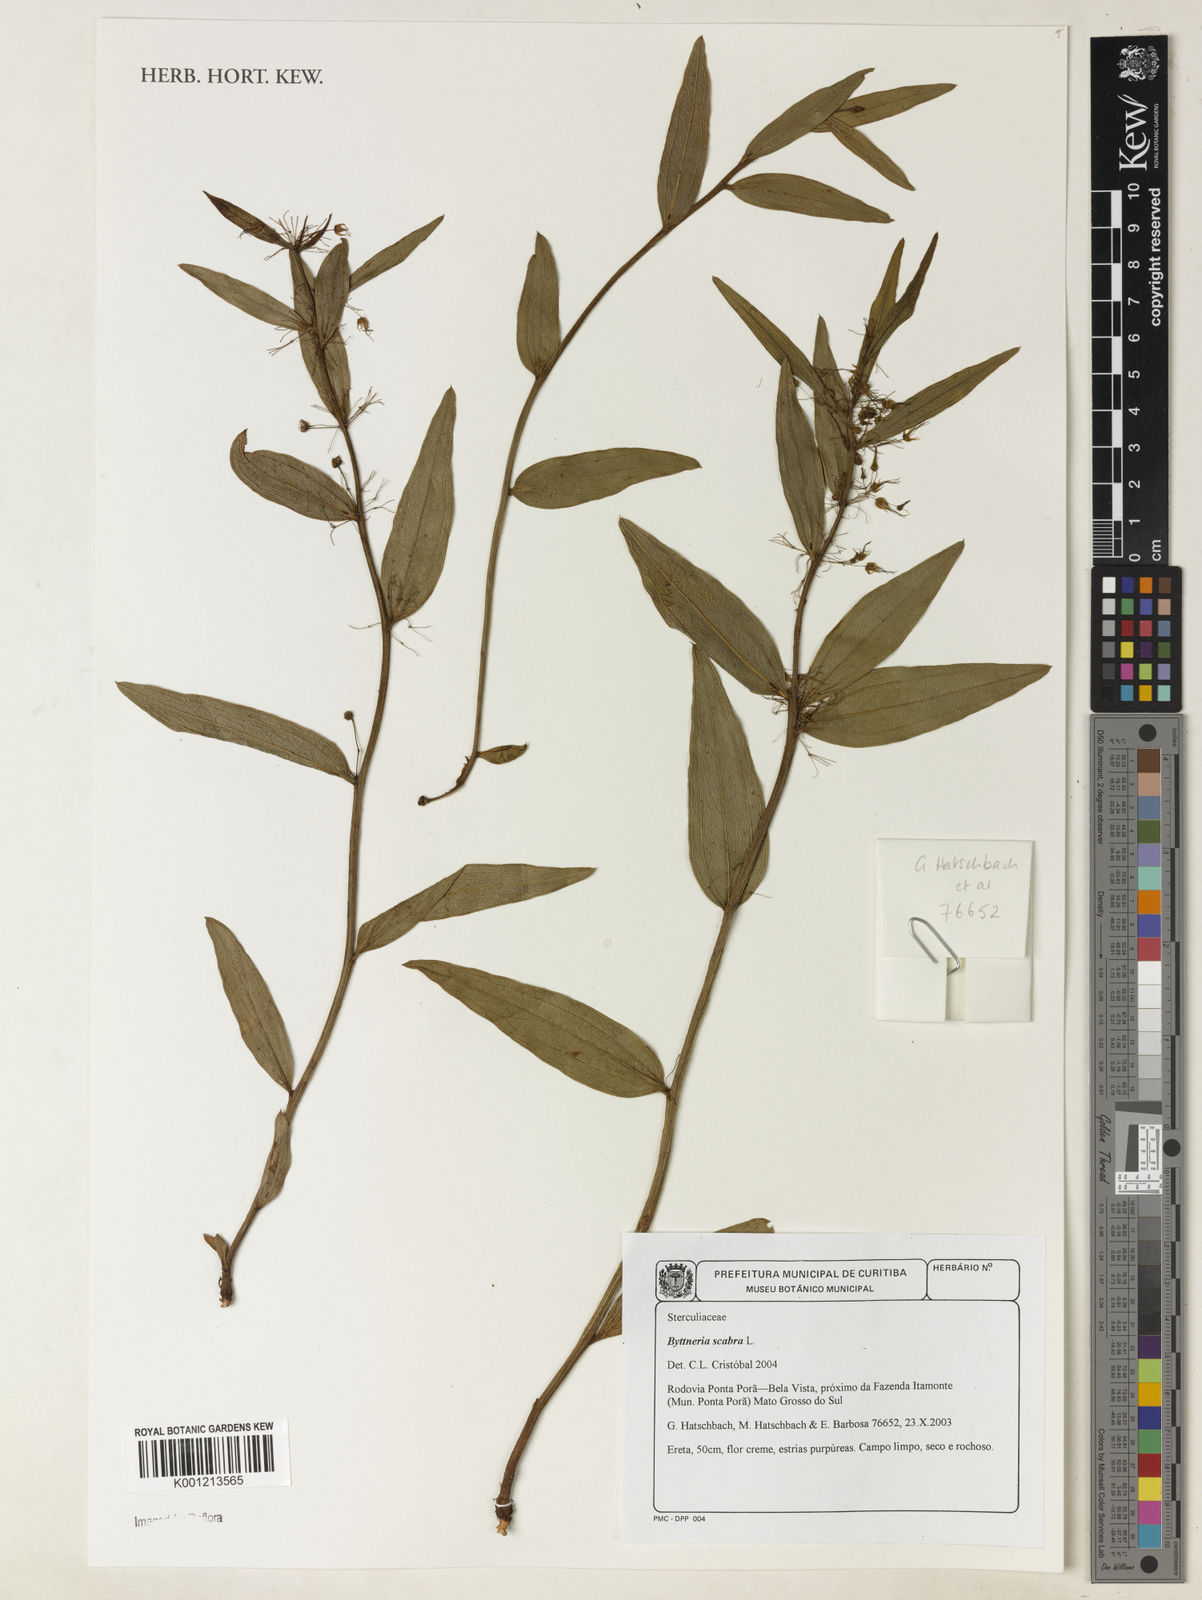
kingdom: Plantae
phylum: Tracheophyta
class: Magnoliopsida
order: Malvales
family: Malvaceae
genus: Byttneria
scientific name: Byttneria
